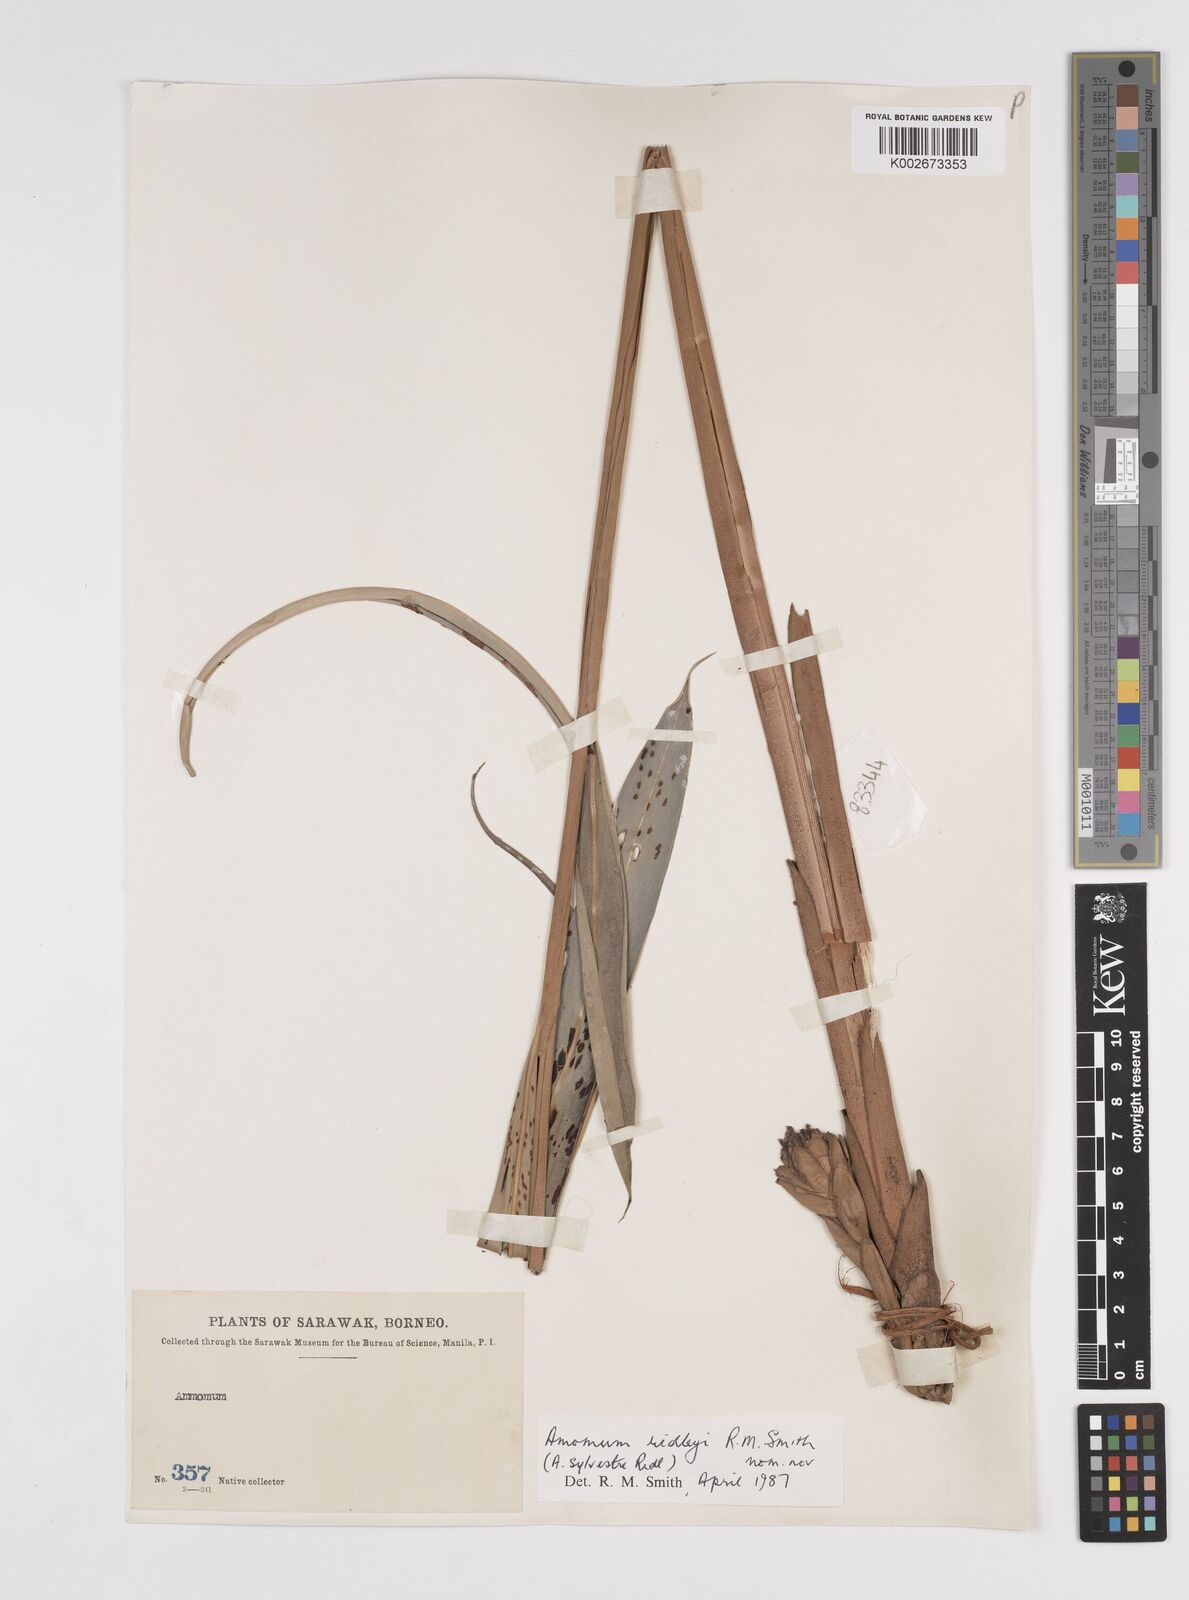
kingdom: Plantae
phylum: Tracheophyta
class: Liliopsida
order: Zingiberales
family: Zingiberaceae
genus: Sundamomum
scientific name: Sundamomum borealiborneense
